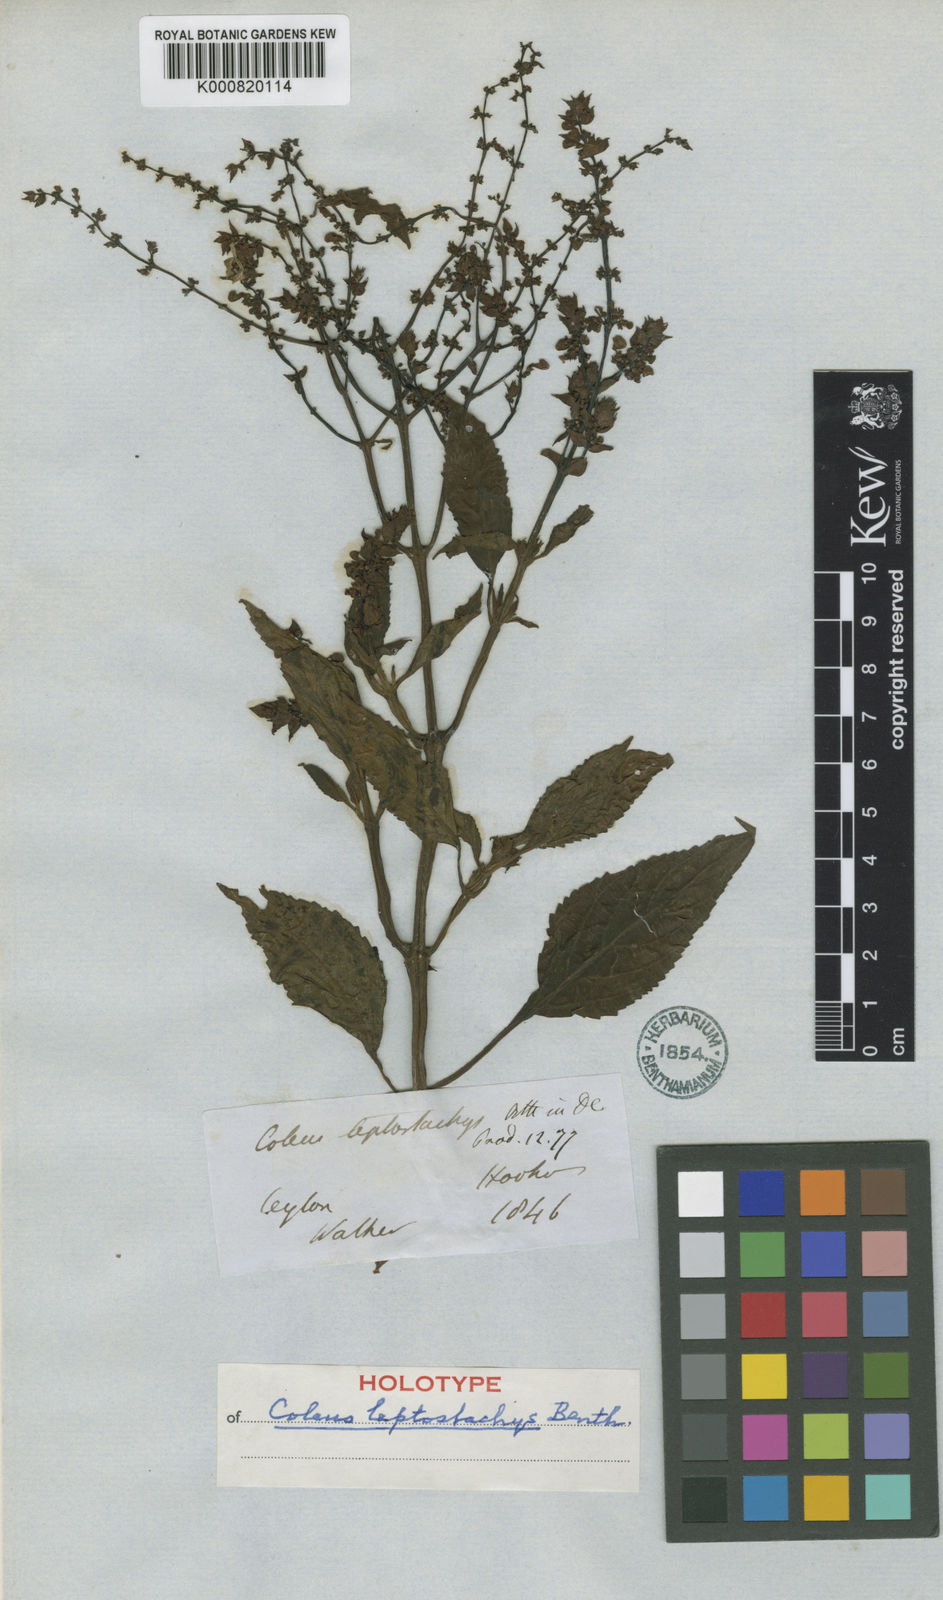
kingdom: Plantae
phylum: Tracheophyta
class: Magnoliopsida
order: Lamiales
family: Lamiaceae
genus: Coleus
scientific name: Coleus malabaricus
